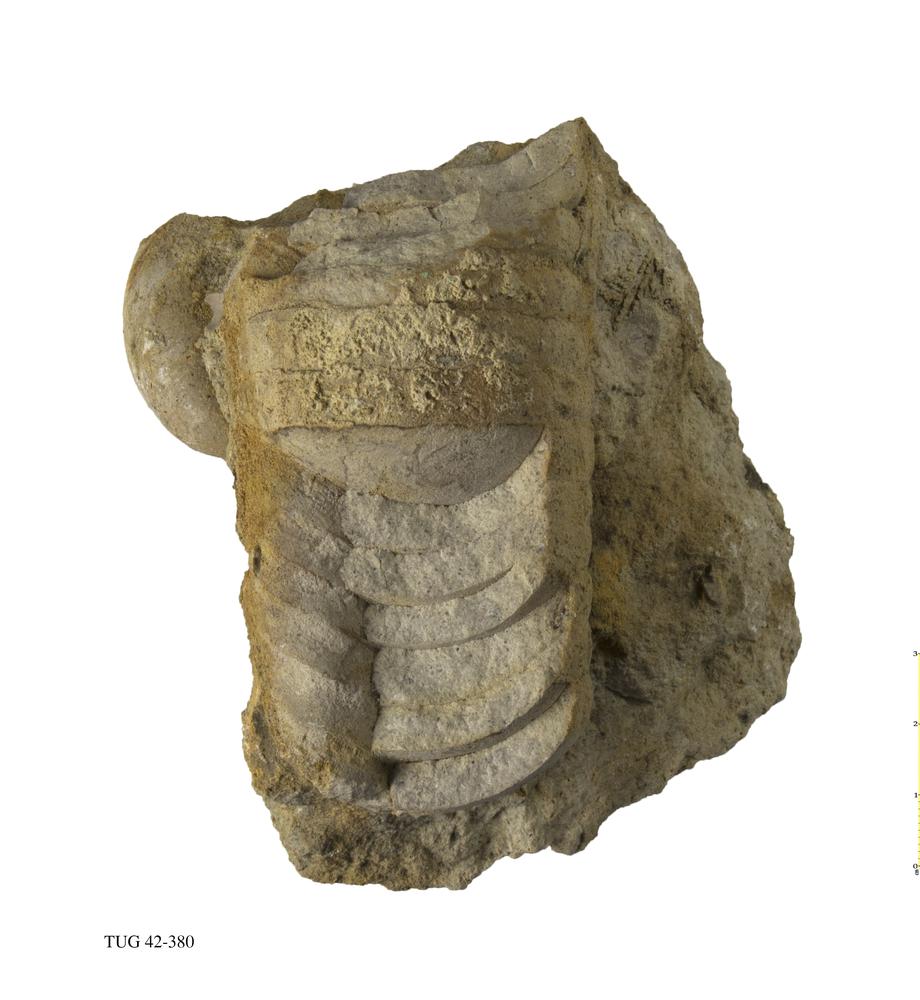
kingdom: Animalia
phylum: Mollusca
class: Cephalopoda
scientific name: Cephalopoda
